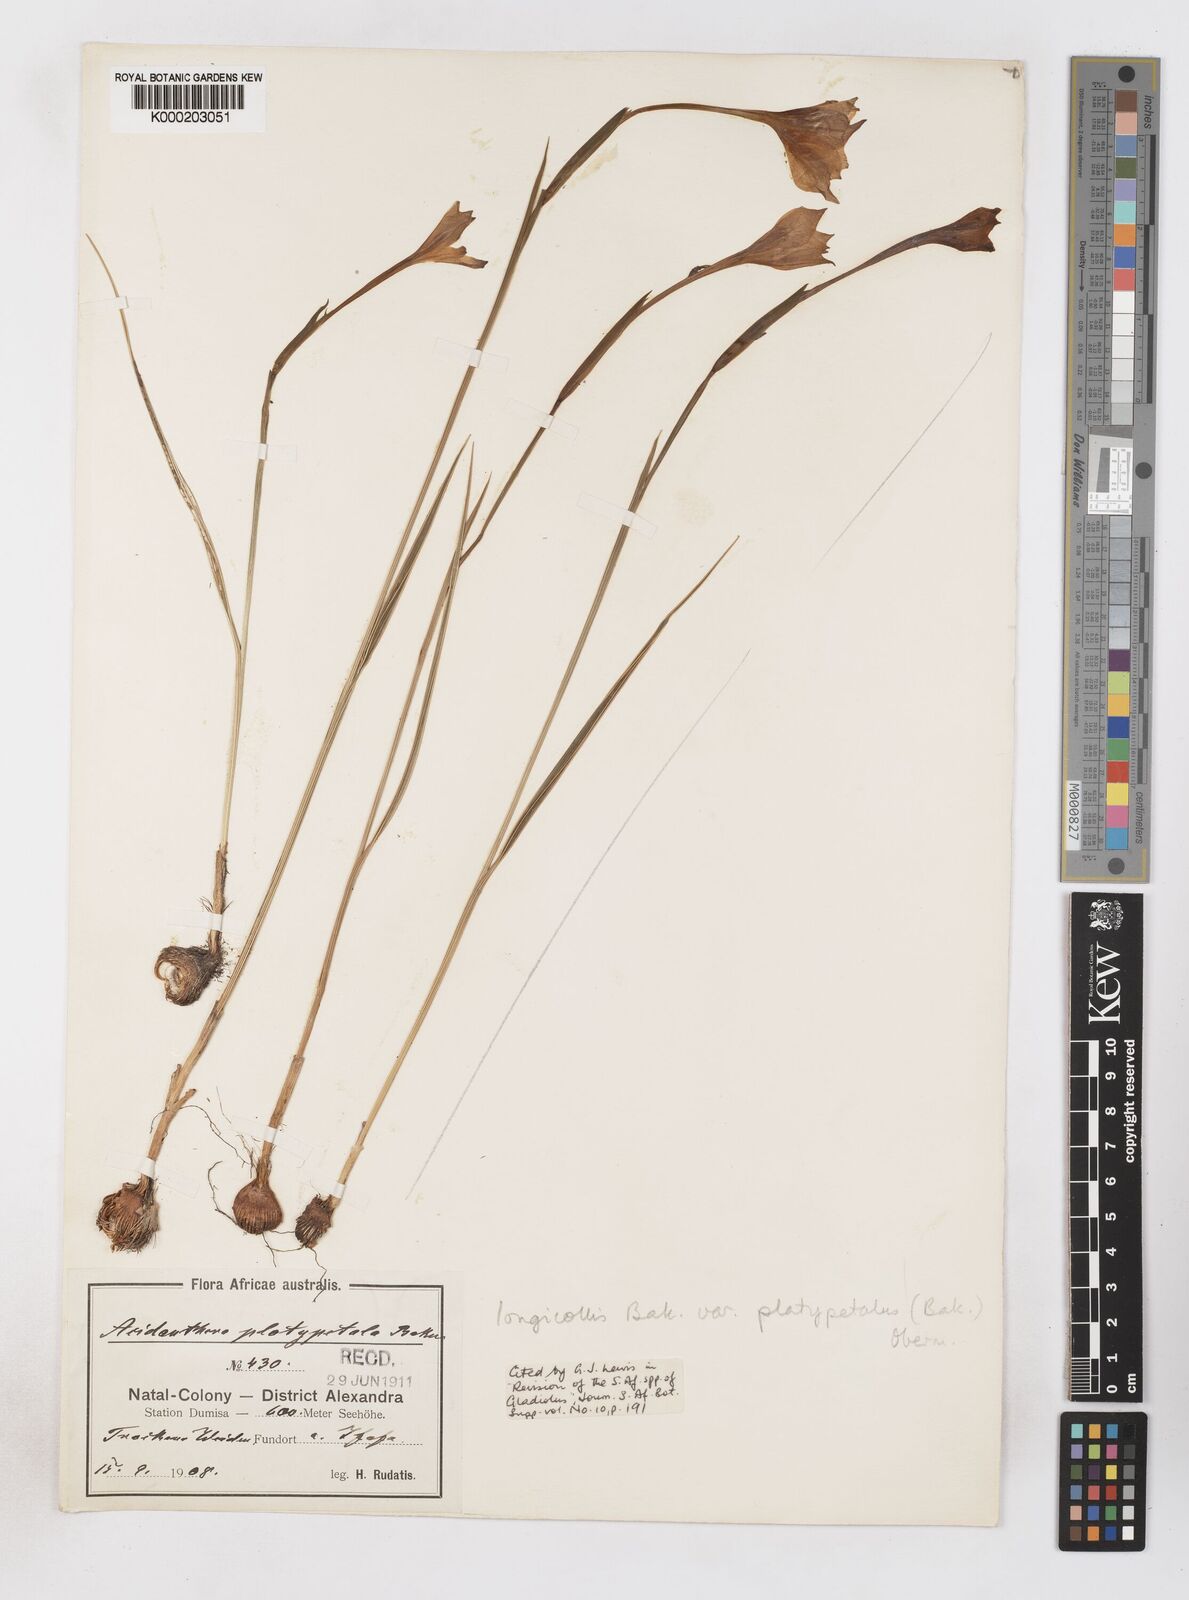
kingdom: Plantae
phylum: Tracheophyta
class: Liliopsida
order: Asparagales
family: Iridaceae
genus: Gladiolus
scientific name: Gladiolus longicollis
